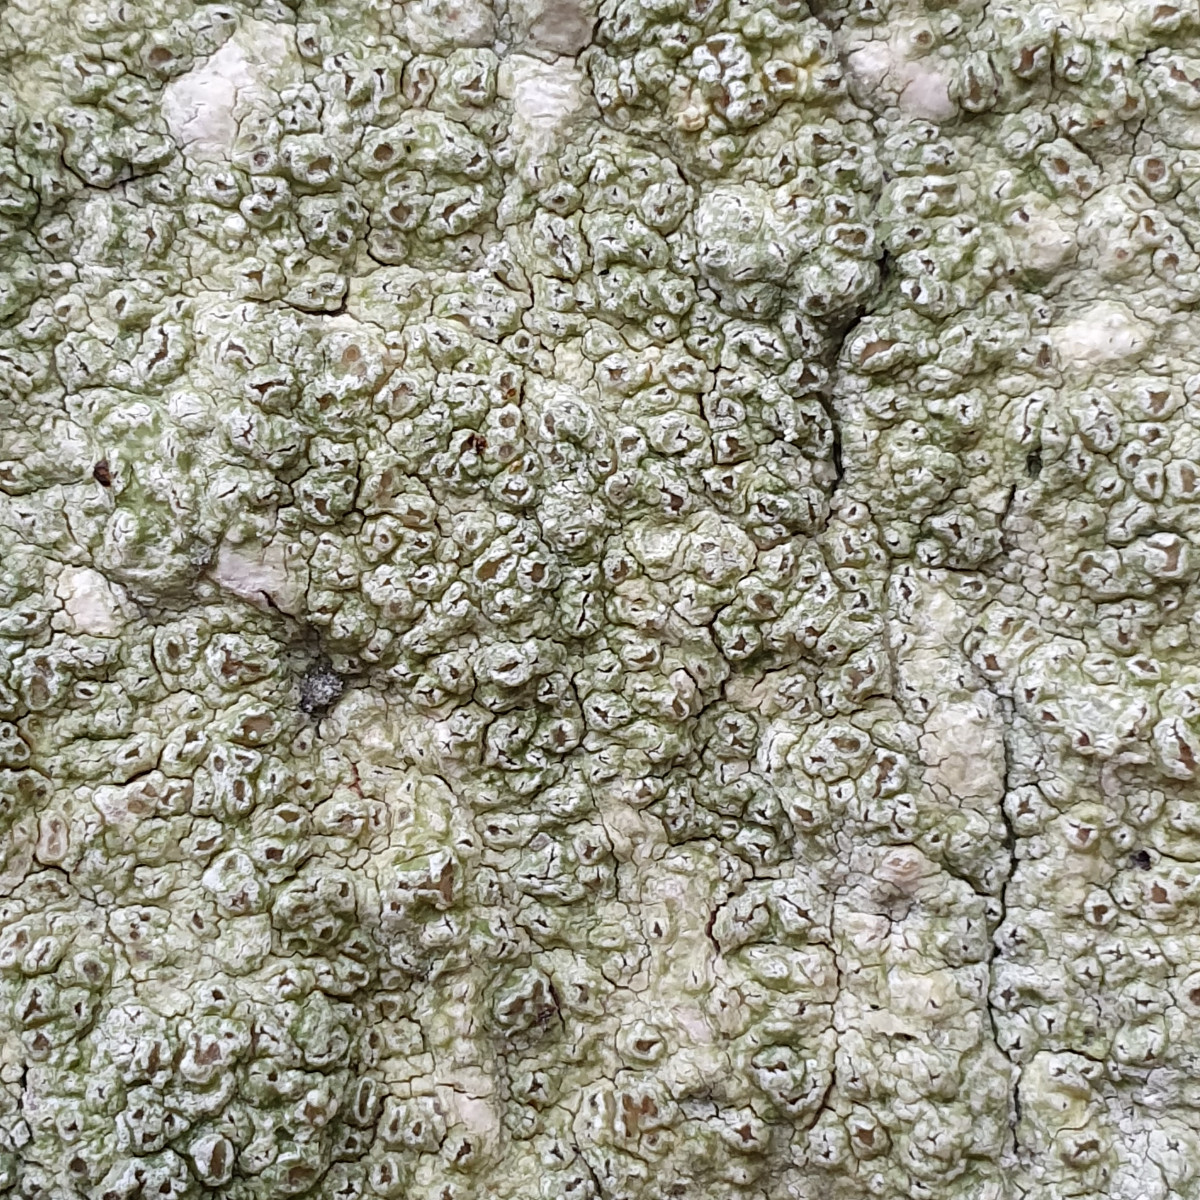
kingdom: Fungi
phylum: Ascomycota
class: Lecanoromycetes
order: Pertusariales
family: Pertusariaceae
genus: Pertusaria
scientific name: Pertusaria hymenea
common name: åben prikvortelav
